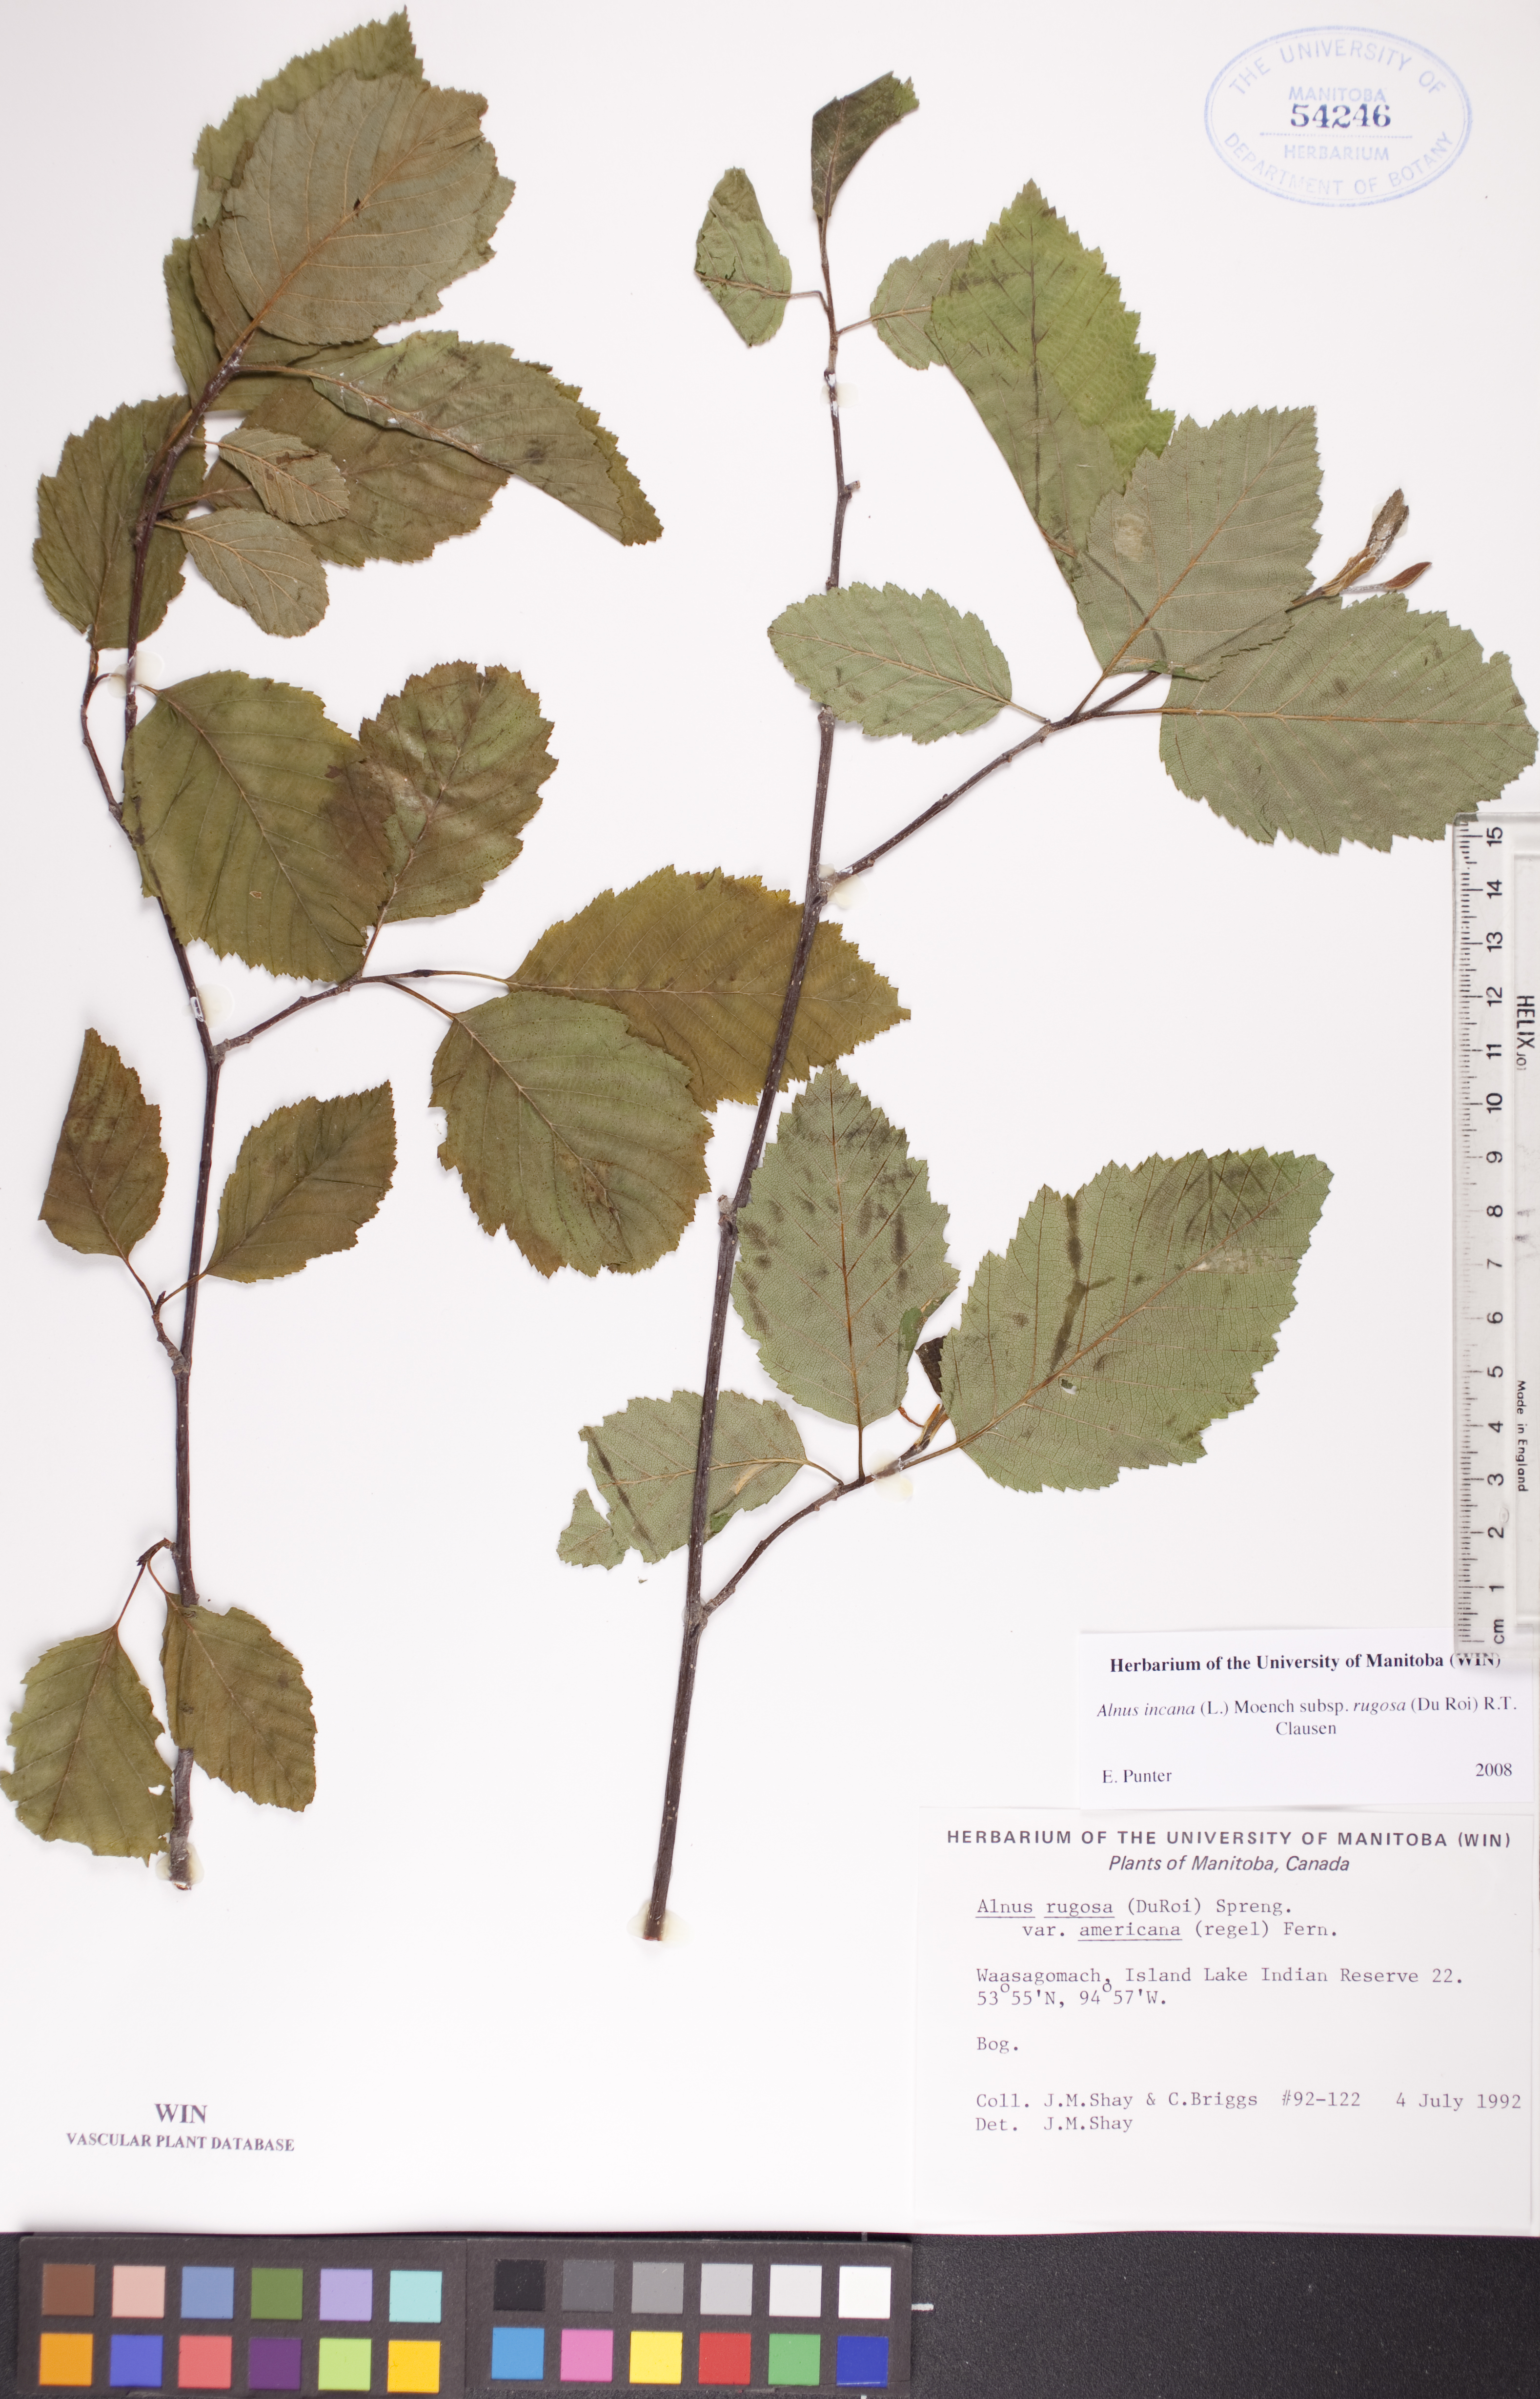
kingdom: Plantae
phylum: Tracheophyta
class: Magnoliopsida
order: Fagales
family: Betulaceae
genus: Alnus
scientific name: Alnus incana
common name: Grey alder
